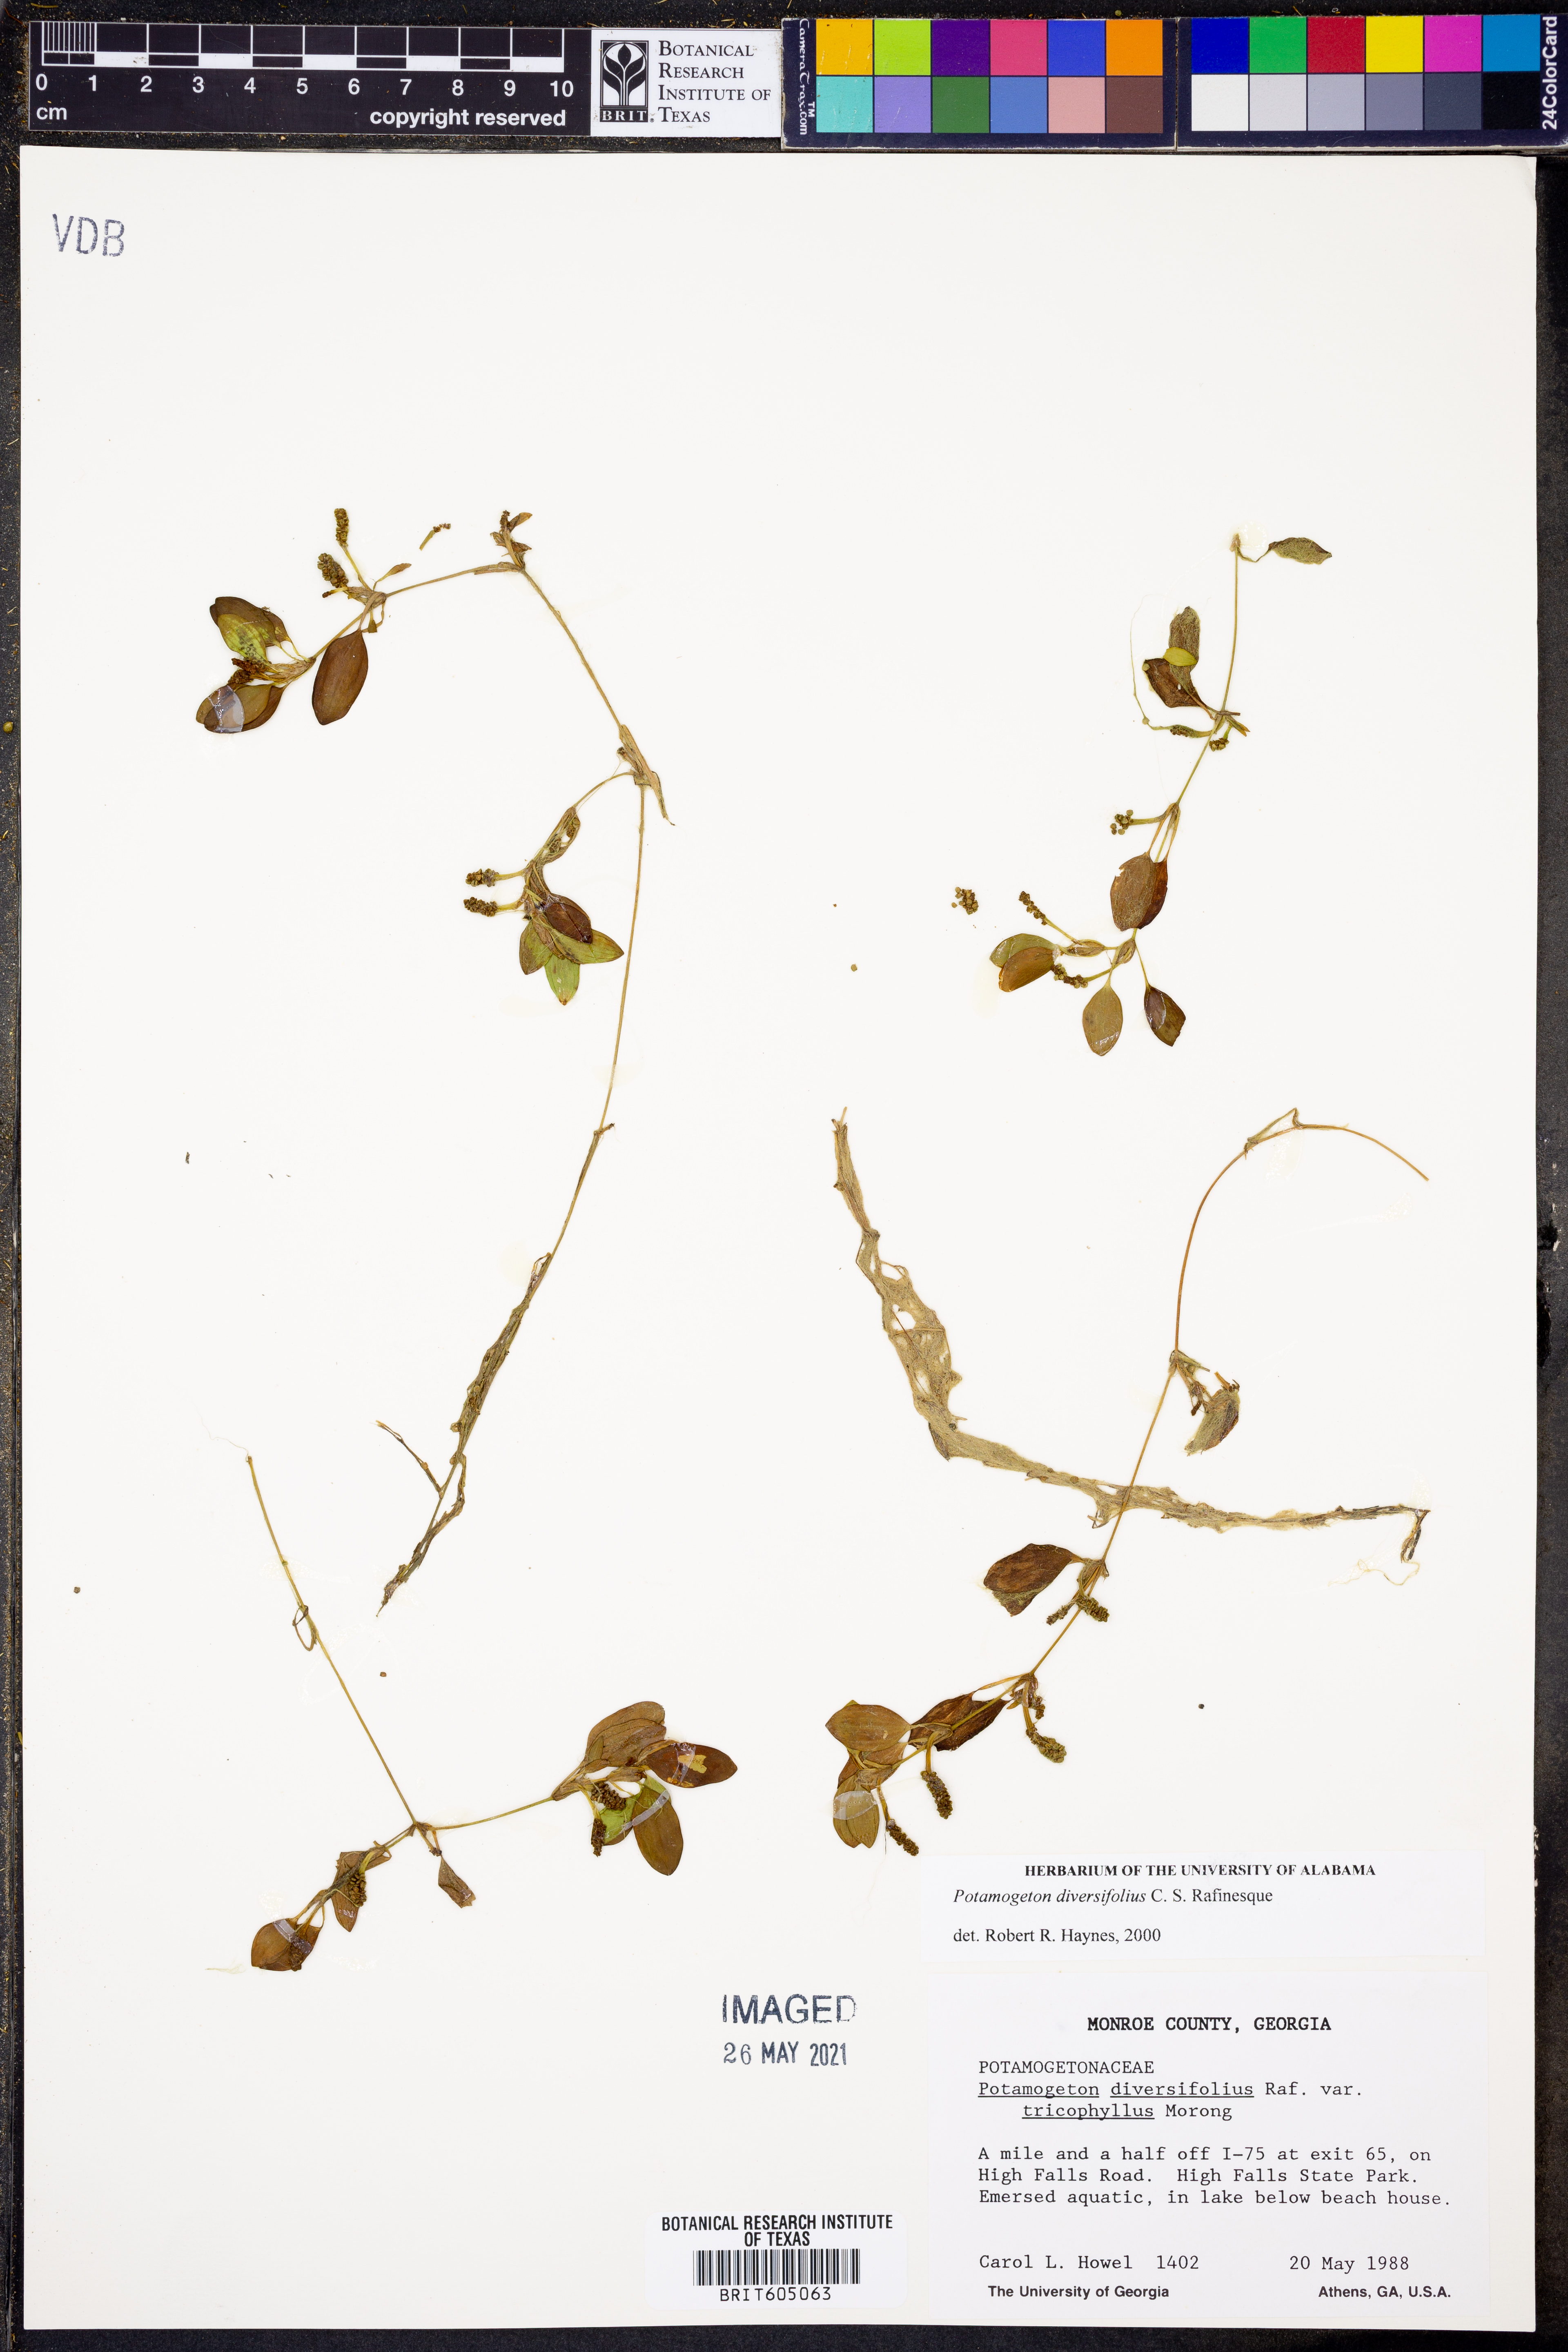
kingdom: Plantae
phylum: Tracheophyta
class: Liliopsida
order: Alismatales
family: Potamogetonaceae
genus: Potamogeton
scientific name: Potamogeton diversifolius
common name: Water-thread pondweed
